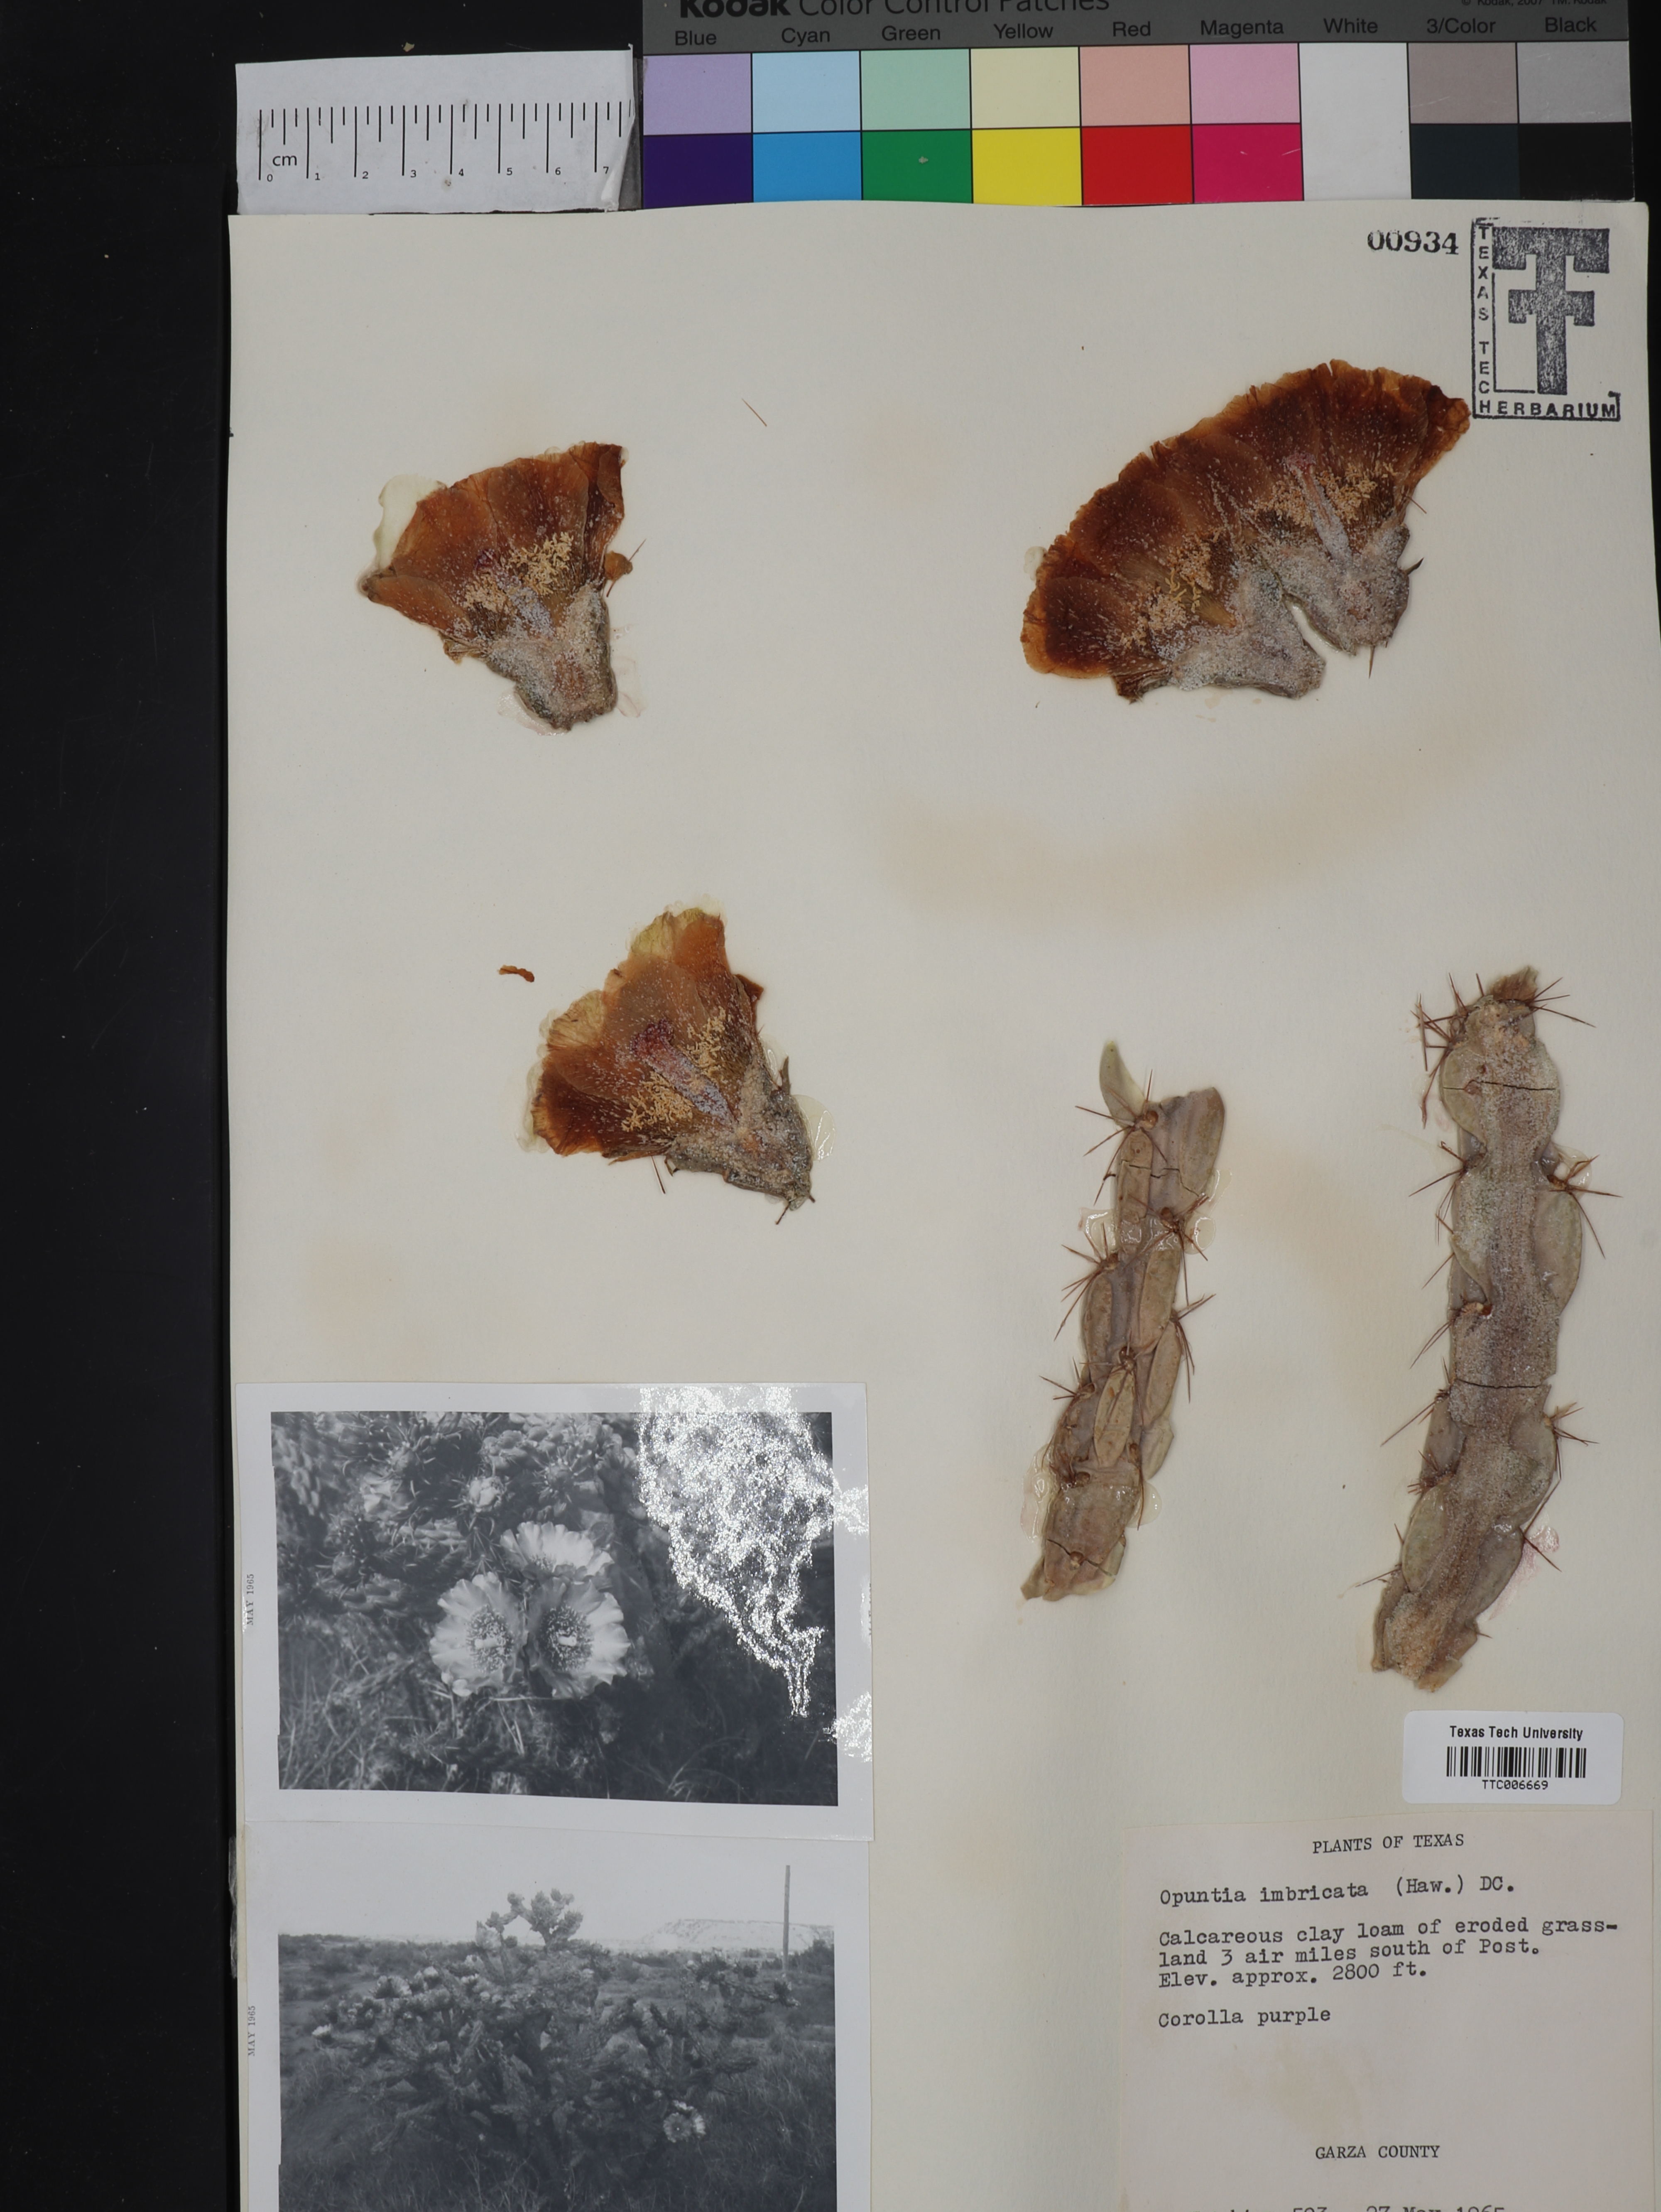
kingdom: Plantae
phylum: Tracheophyta
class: Magnoliopsida
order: Caryophyllales
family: Cactaceae
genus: Cylindropuntia
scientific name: Cylindropuntia imbricata
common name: Candelabrum cactus
